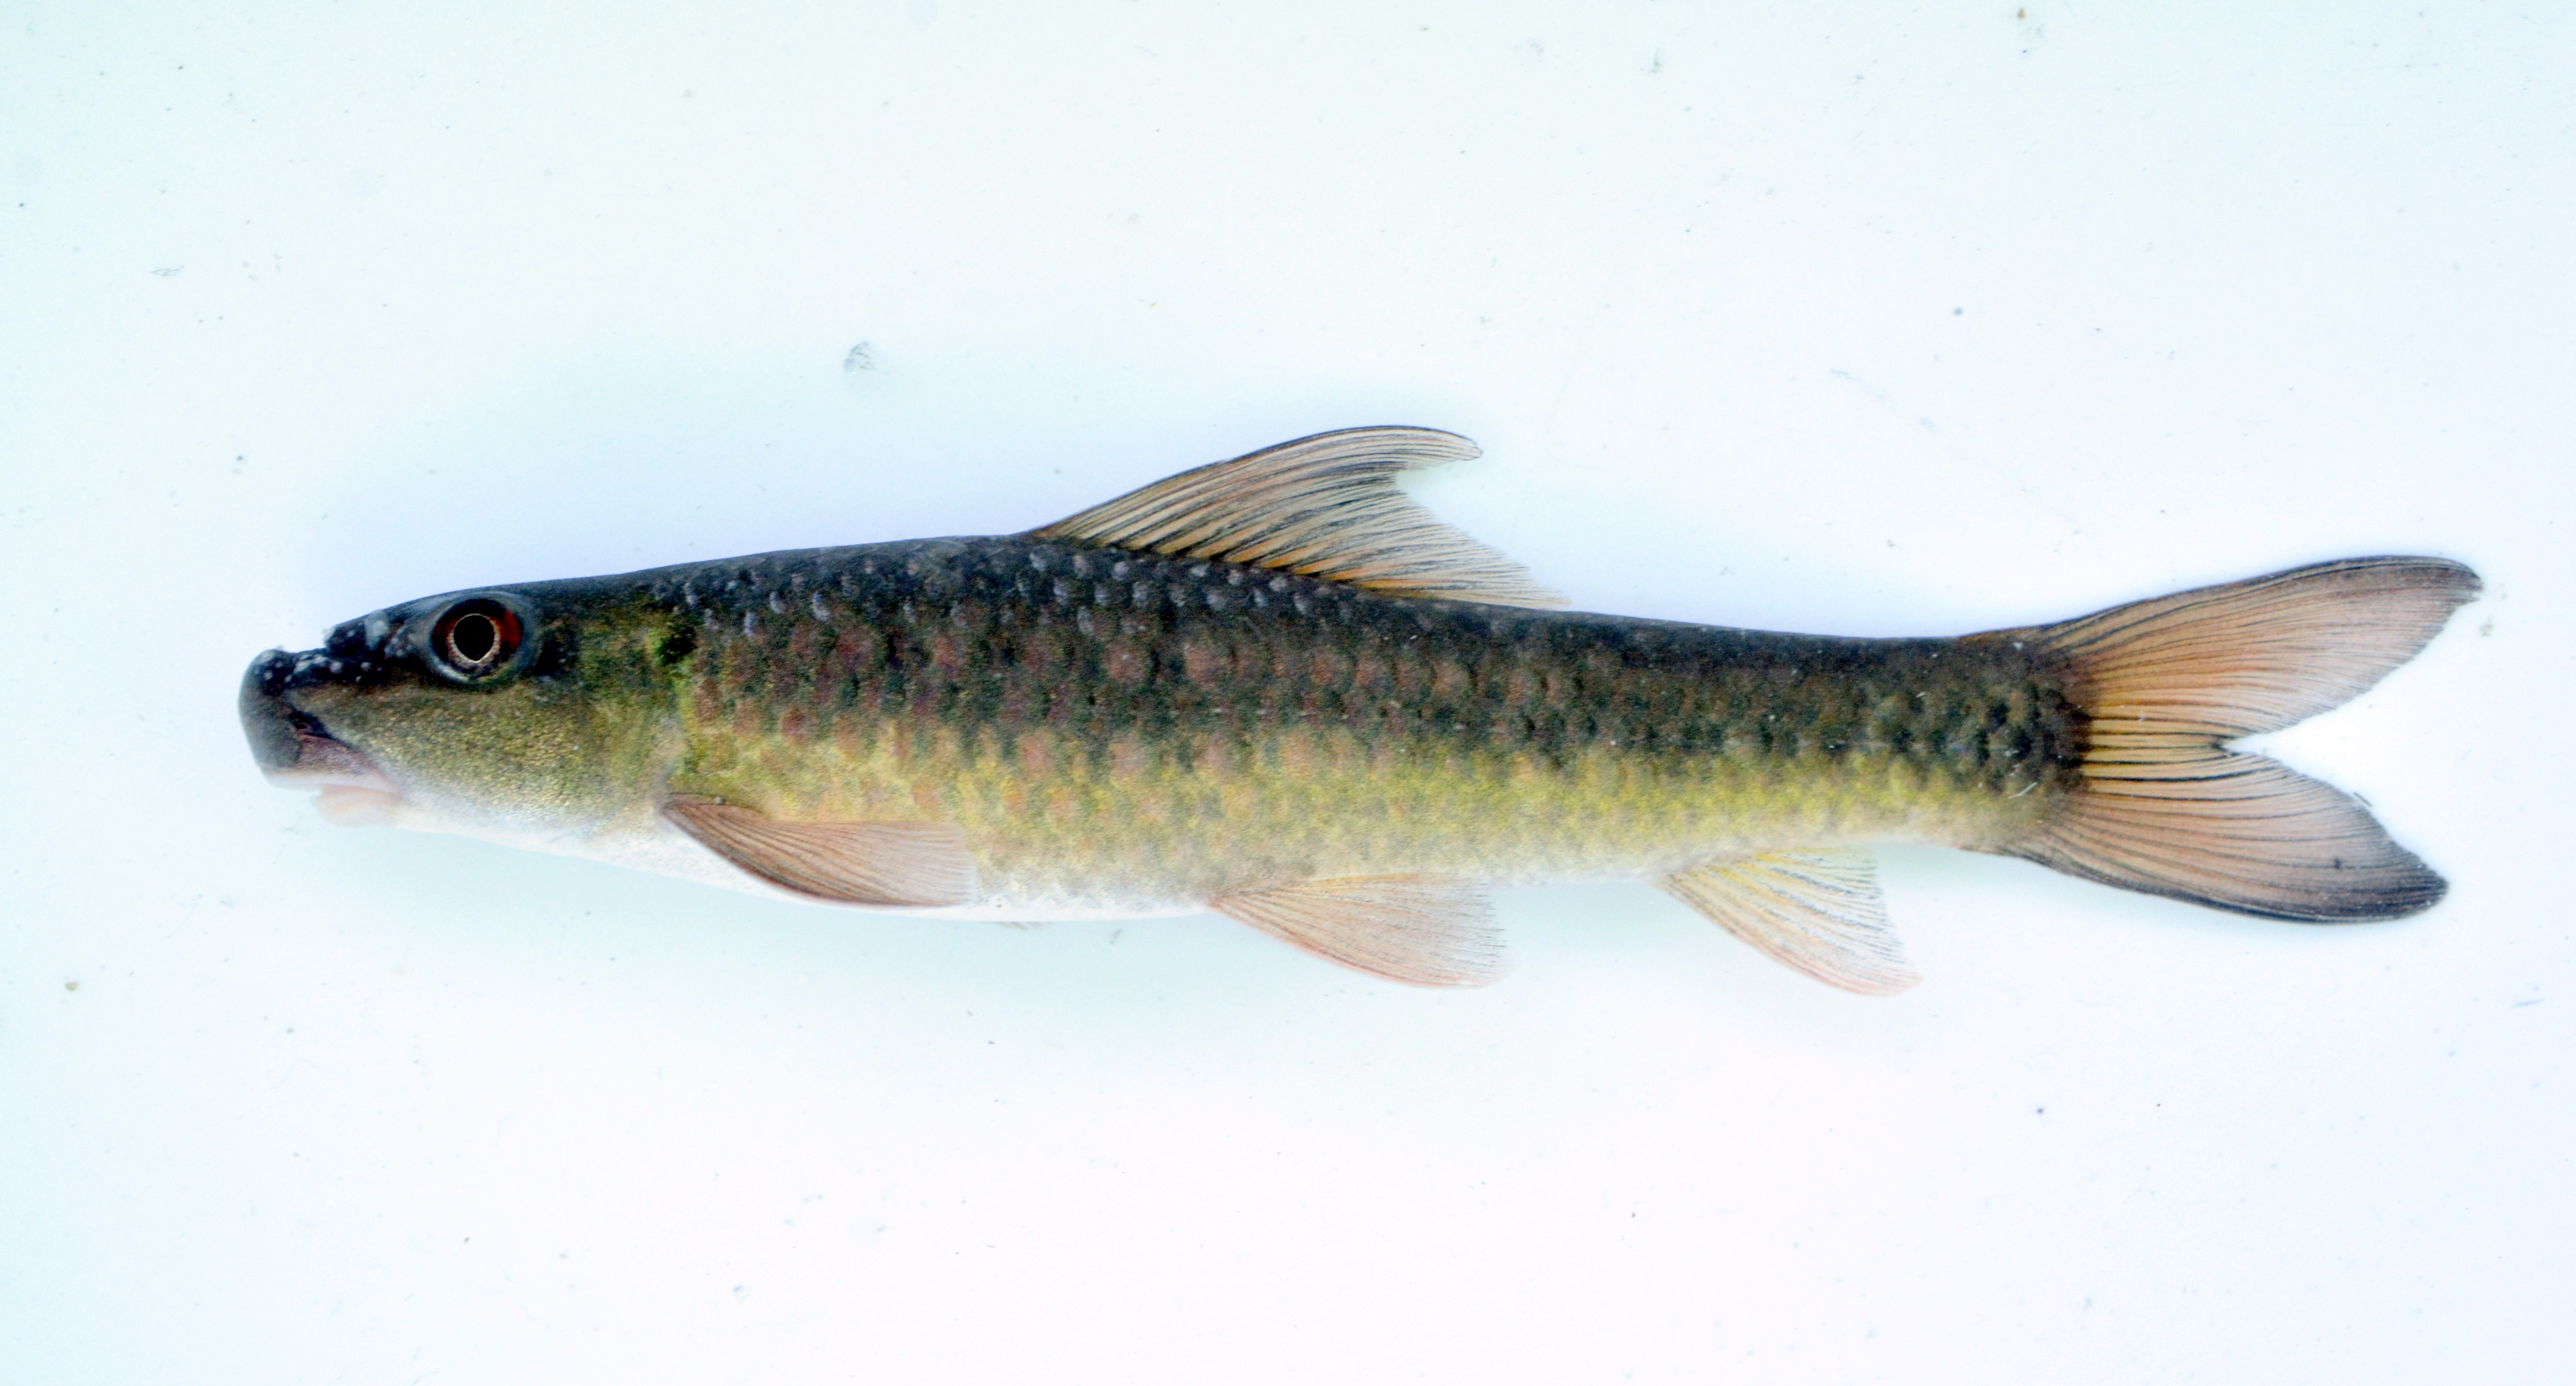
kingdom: Animalia
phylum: Chordata
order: Cypriniformes
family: Cyprinidae
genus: Labeo
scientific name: Labeo cylindricus
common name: Redeye labeo
